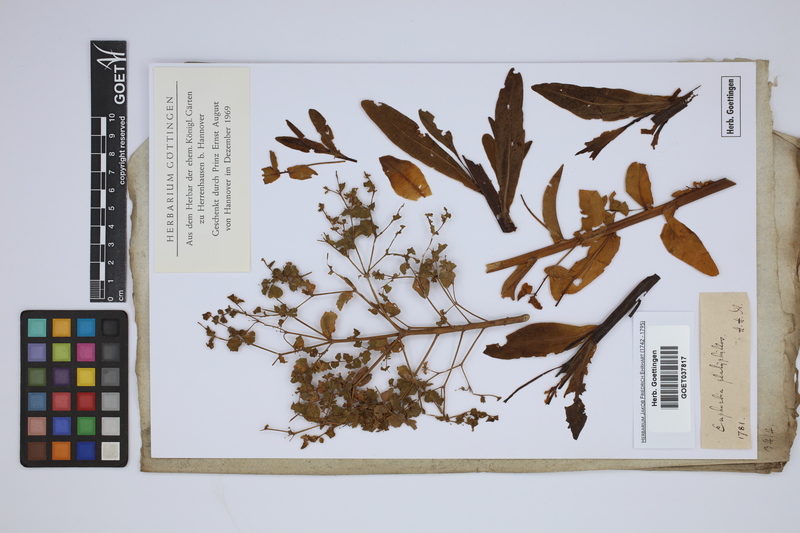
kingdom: Plantae
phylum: Tracheophyta
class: Magnoliopsida
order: Malpighiales
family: Euphorbiaceae
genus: Euphorbia
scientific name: Euphorbia platyphyllos
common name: Broad-leaved spurge
